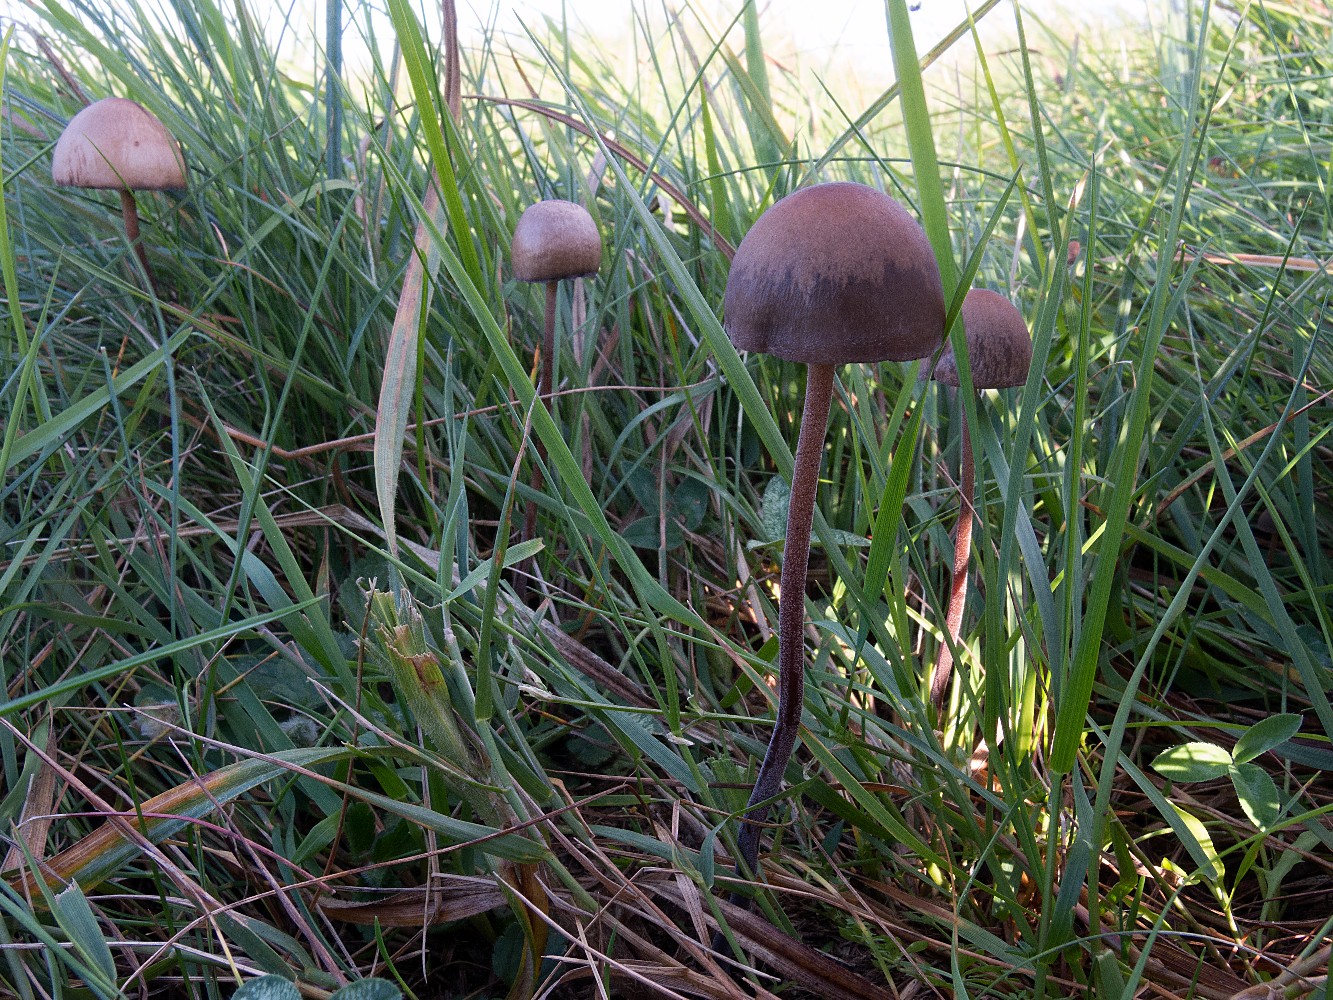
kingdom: Fungi
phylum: Basidiomycota
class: Agaricomycetes
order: Agaricales
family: Bolbitiaceae
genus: Panaeolus
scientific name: Panaeolus acuminatus
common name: høj glanshat
